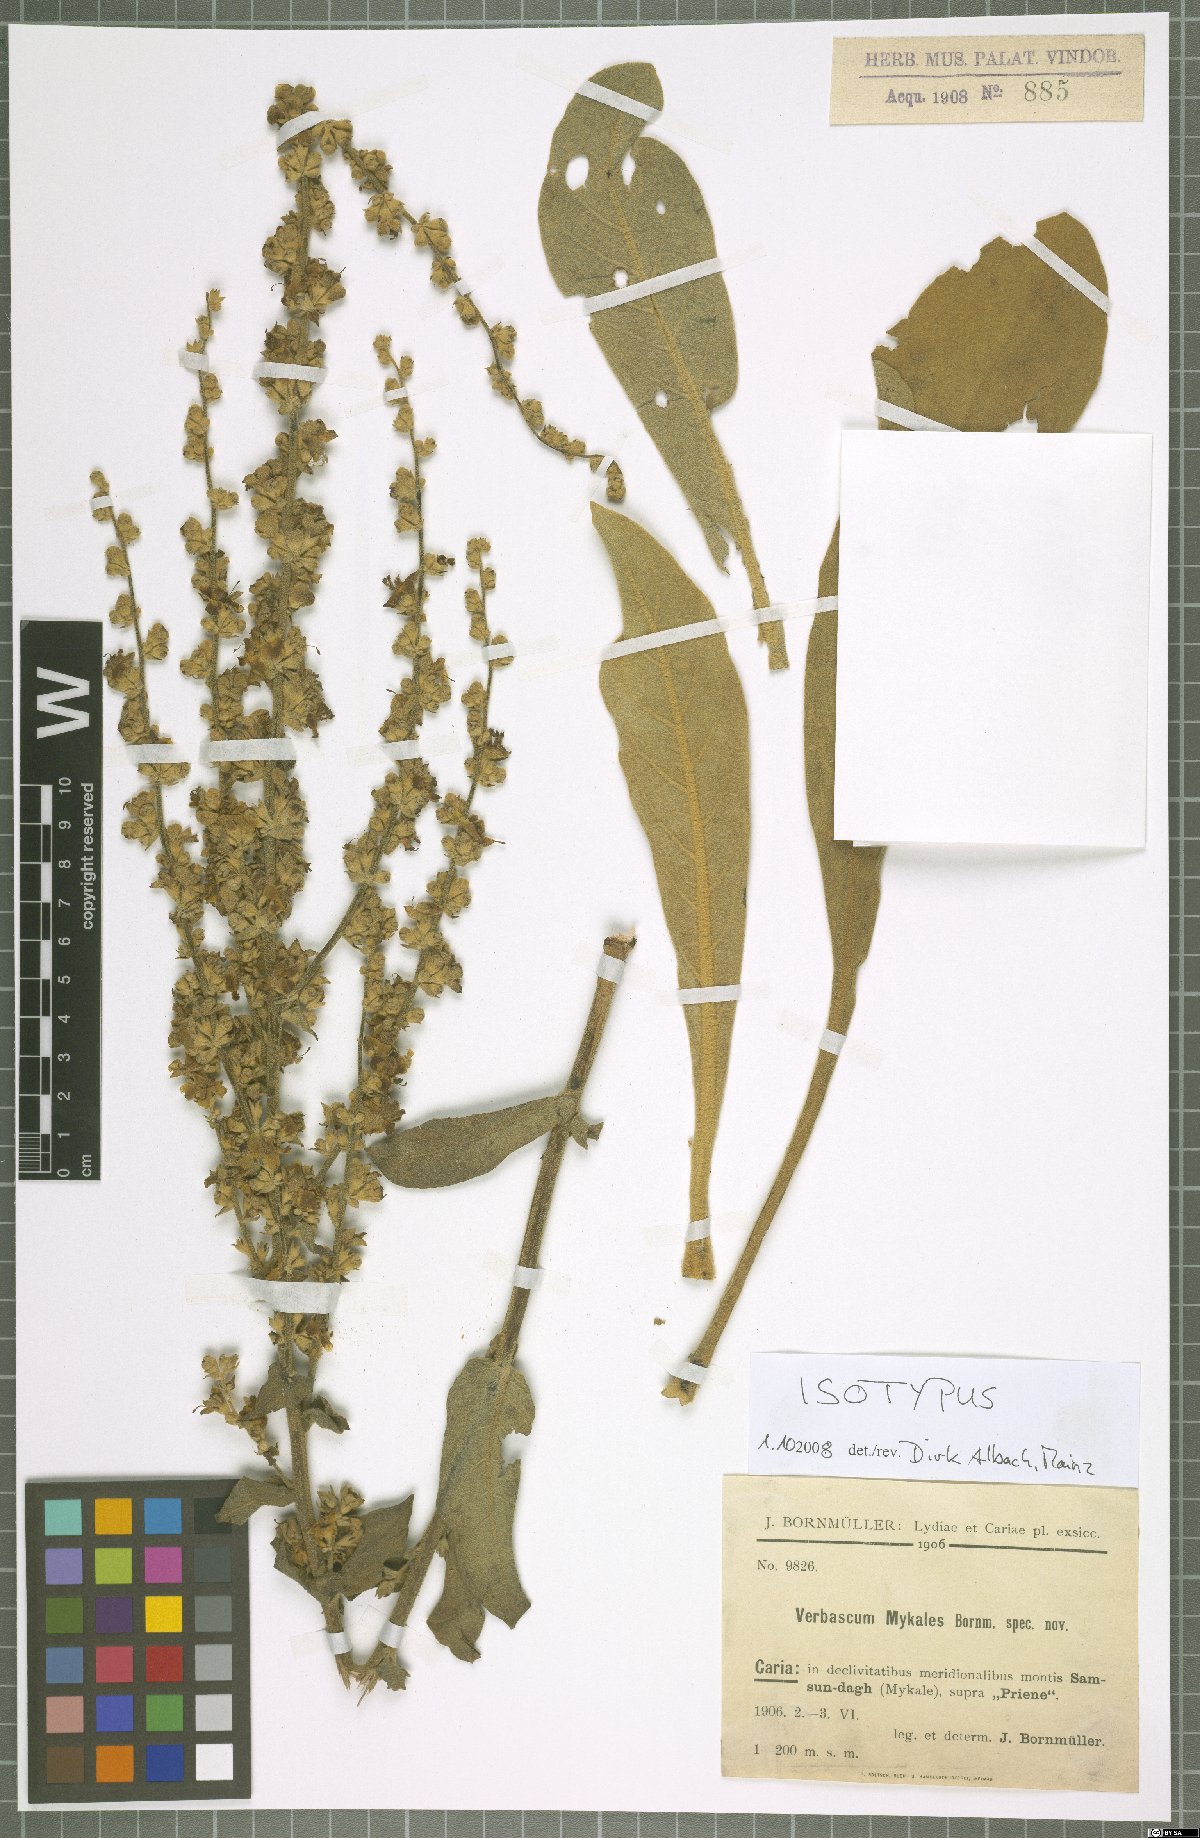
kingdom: Plantae
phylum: Tracheophyta
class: Magnoliopsida
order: Lamiales
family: Scrophulariaceae
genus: Verbascum
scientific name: Verbascum mykales
